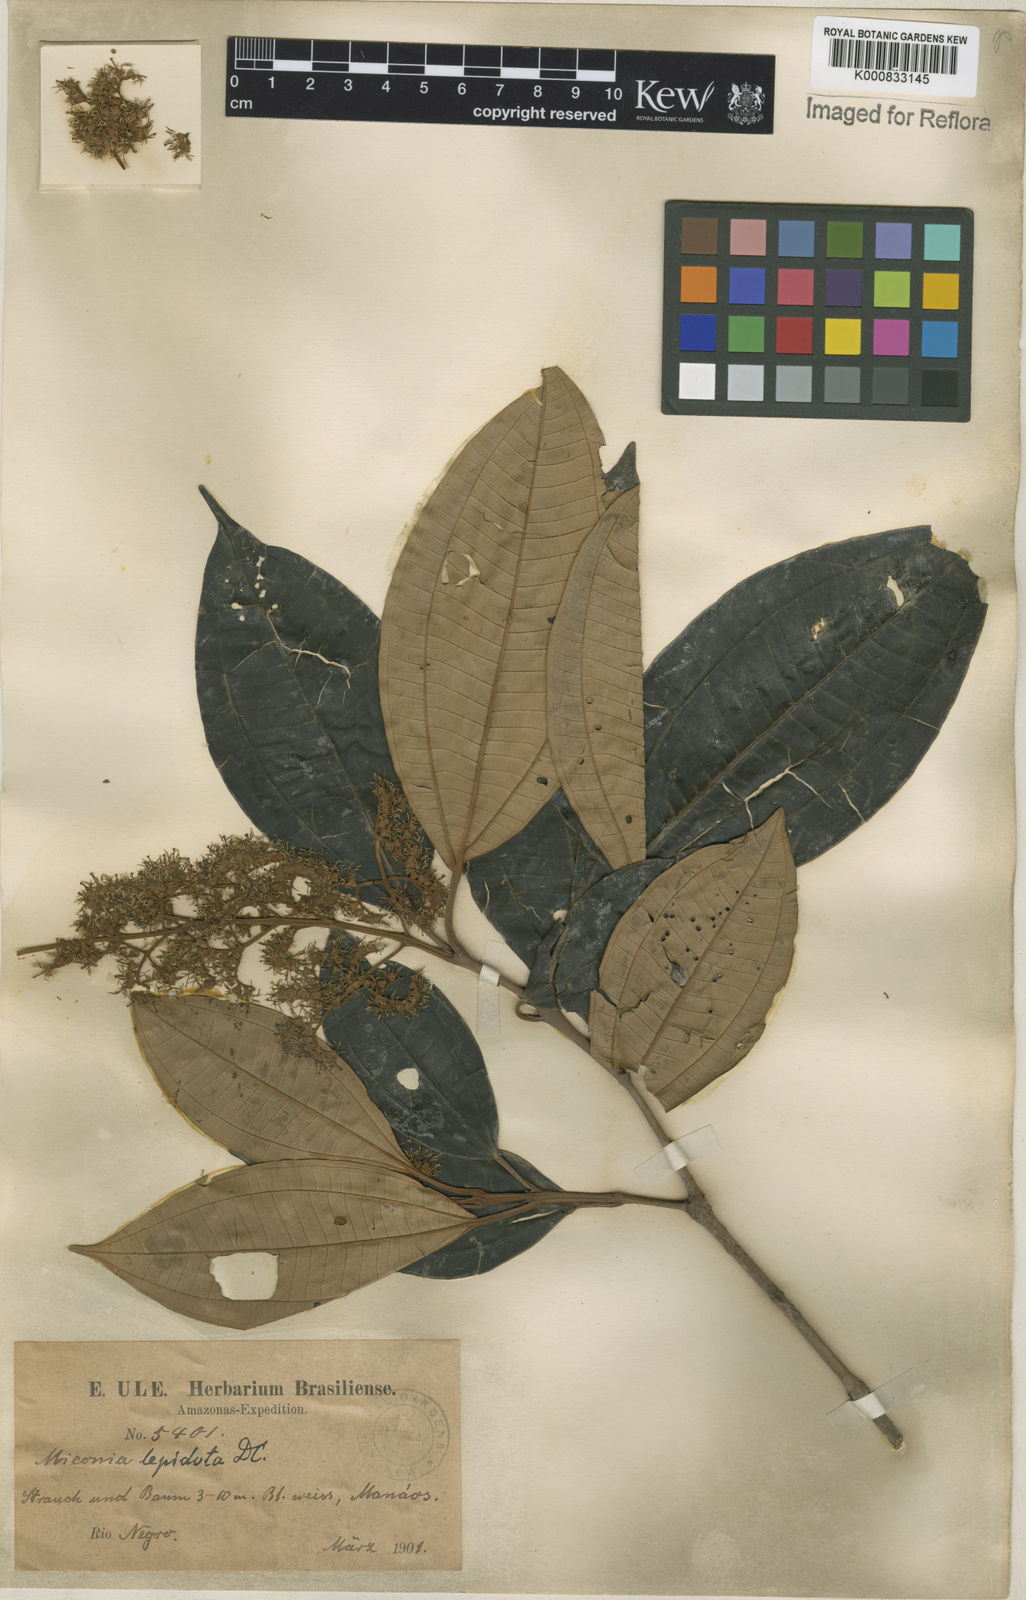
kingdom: Plantae
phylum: Tracheophyta
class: Magnoliopsida
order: Myrtales
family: Melastomataceae
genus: Miconia
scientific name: Miconia lepidota
